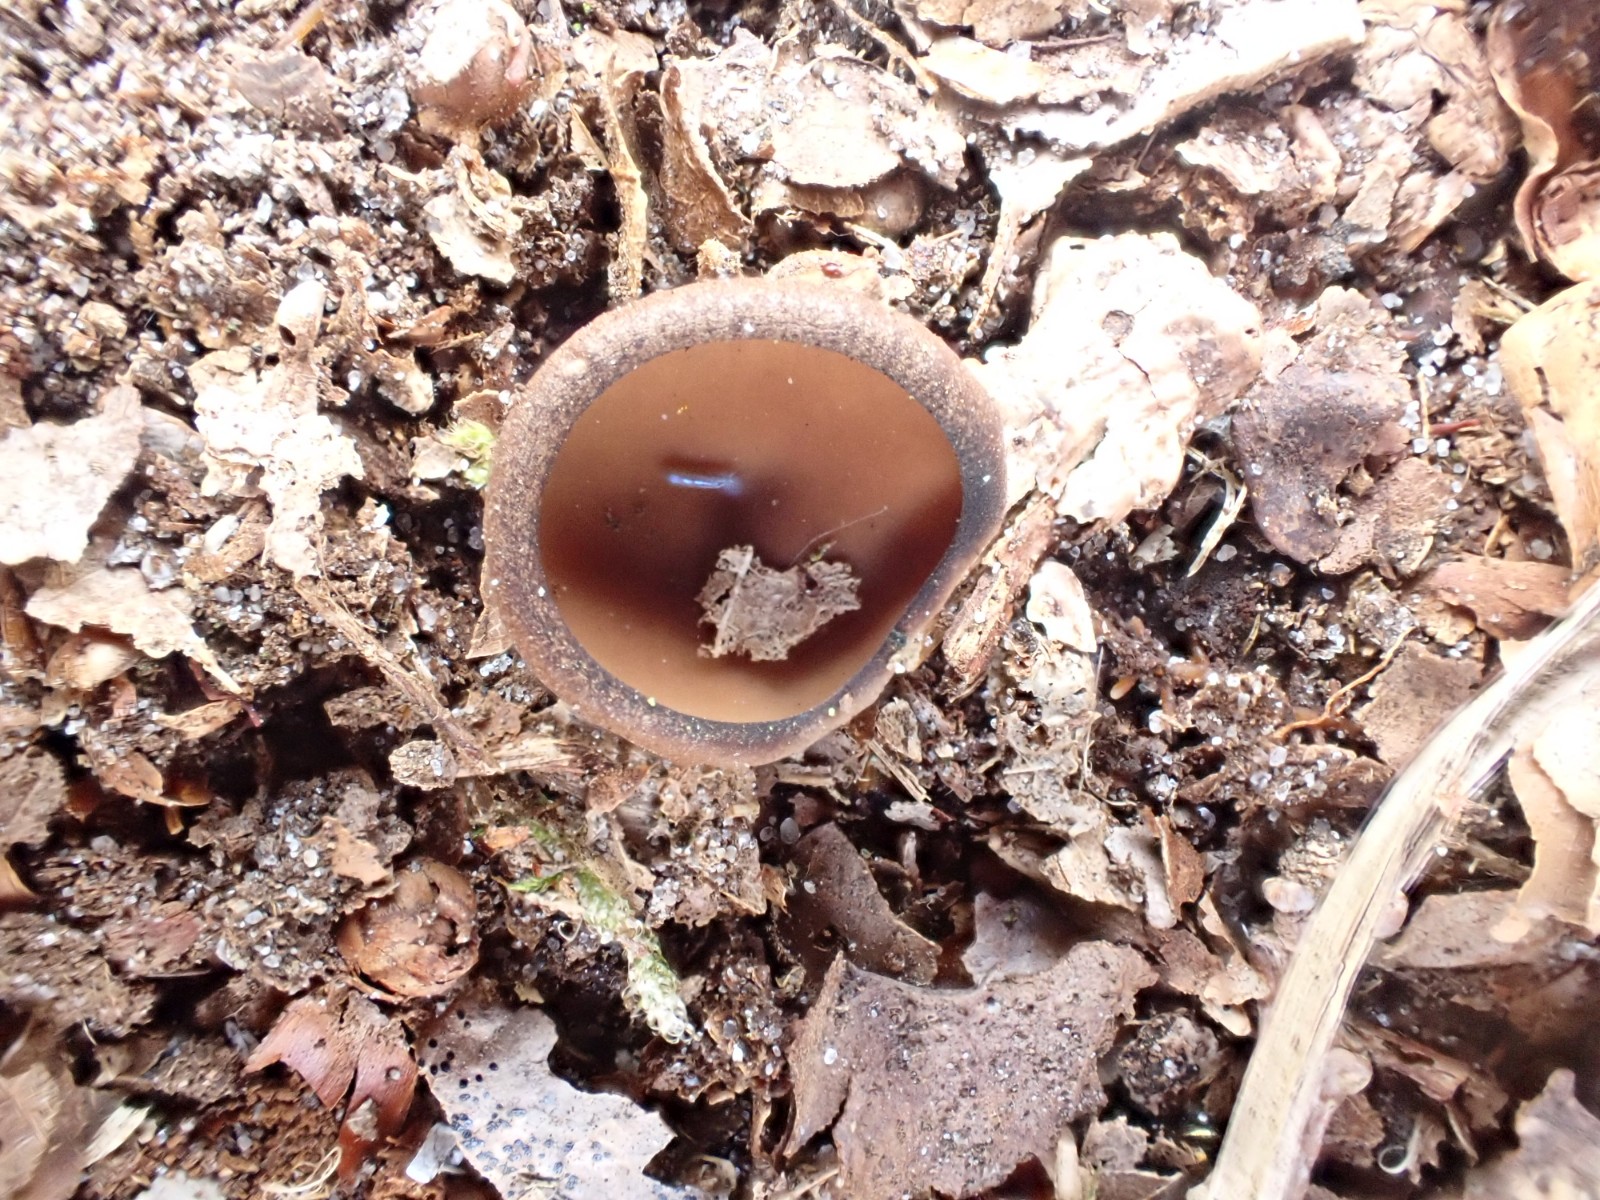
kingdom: Fungi
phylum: Ascomycota
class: Leotiomycetes
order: Helotiales
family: Sclerotiniaceae
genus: Dumontinia
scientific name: Dumontinia tuberosa
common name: anemone-knoldskive
